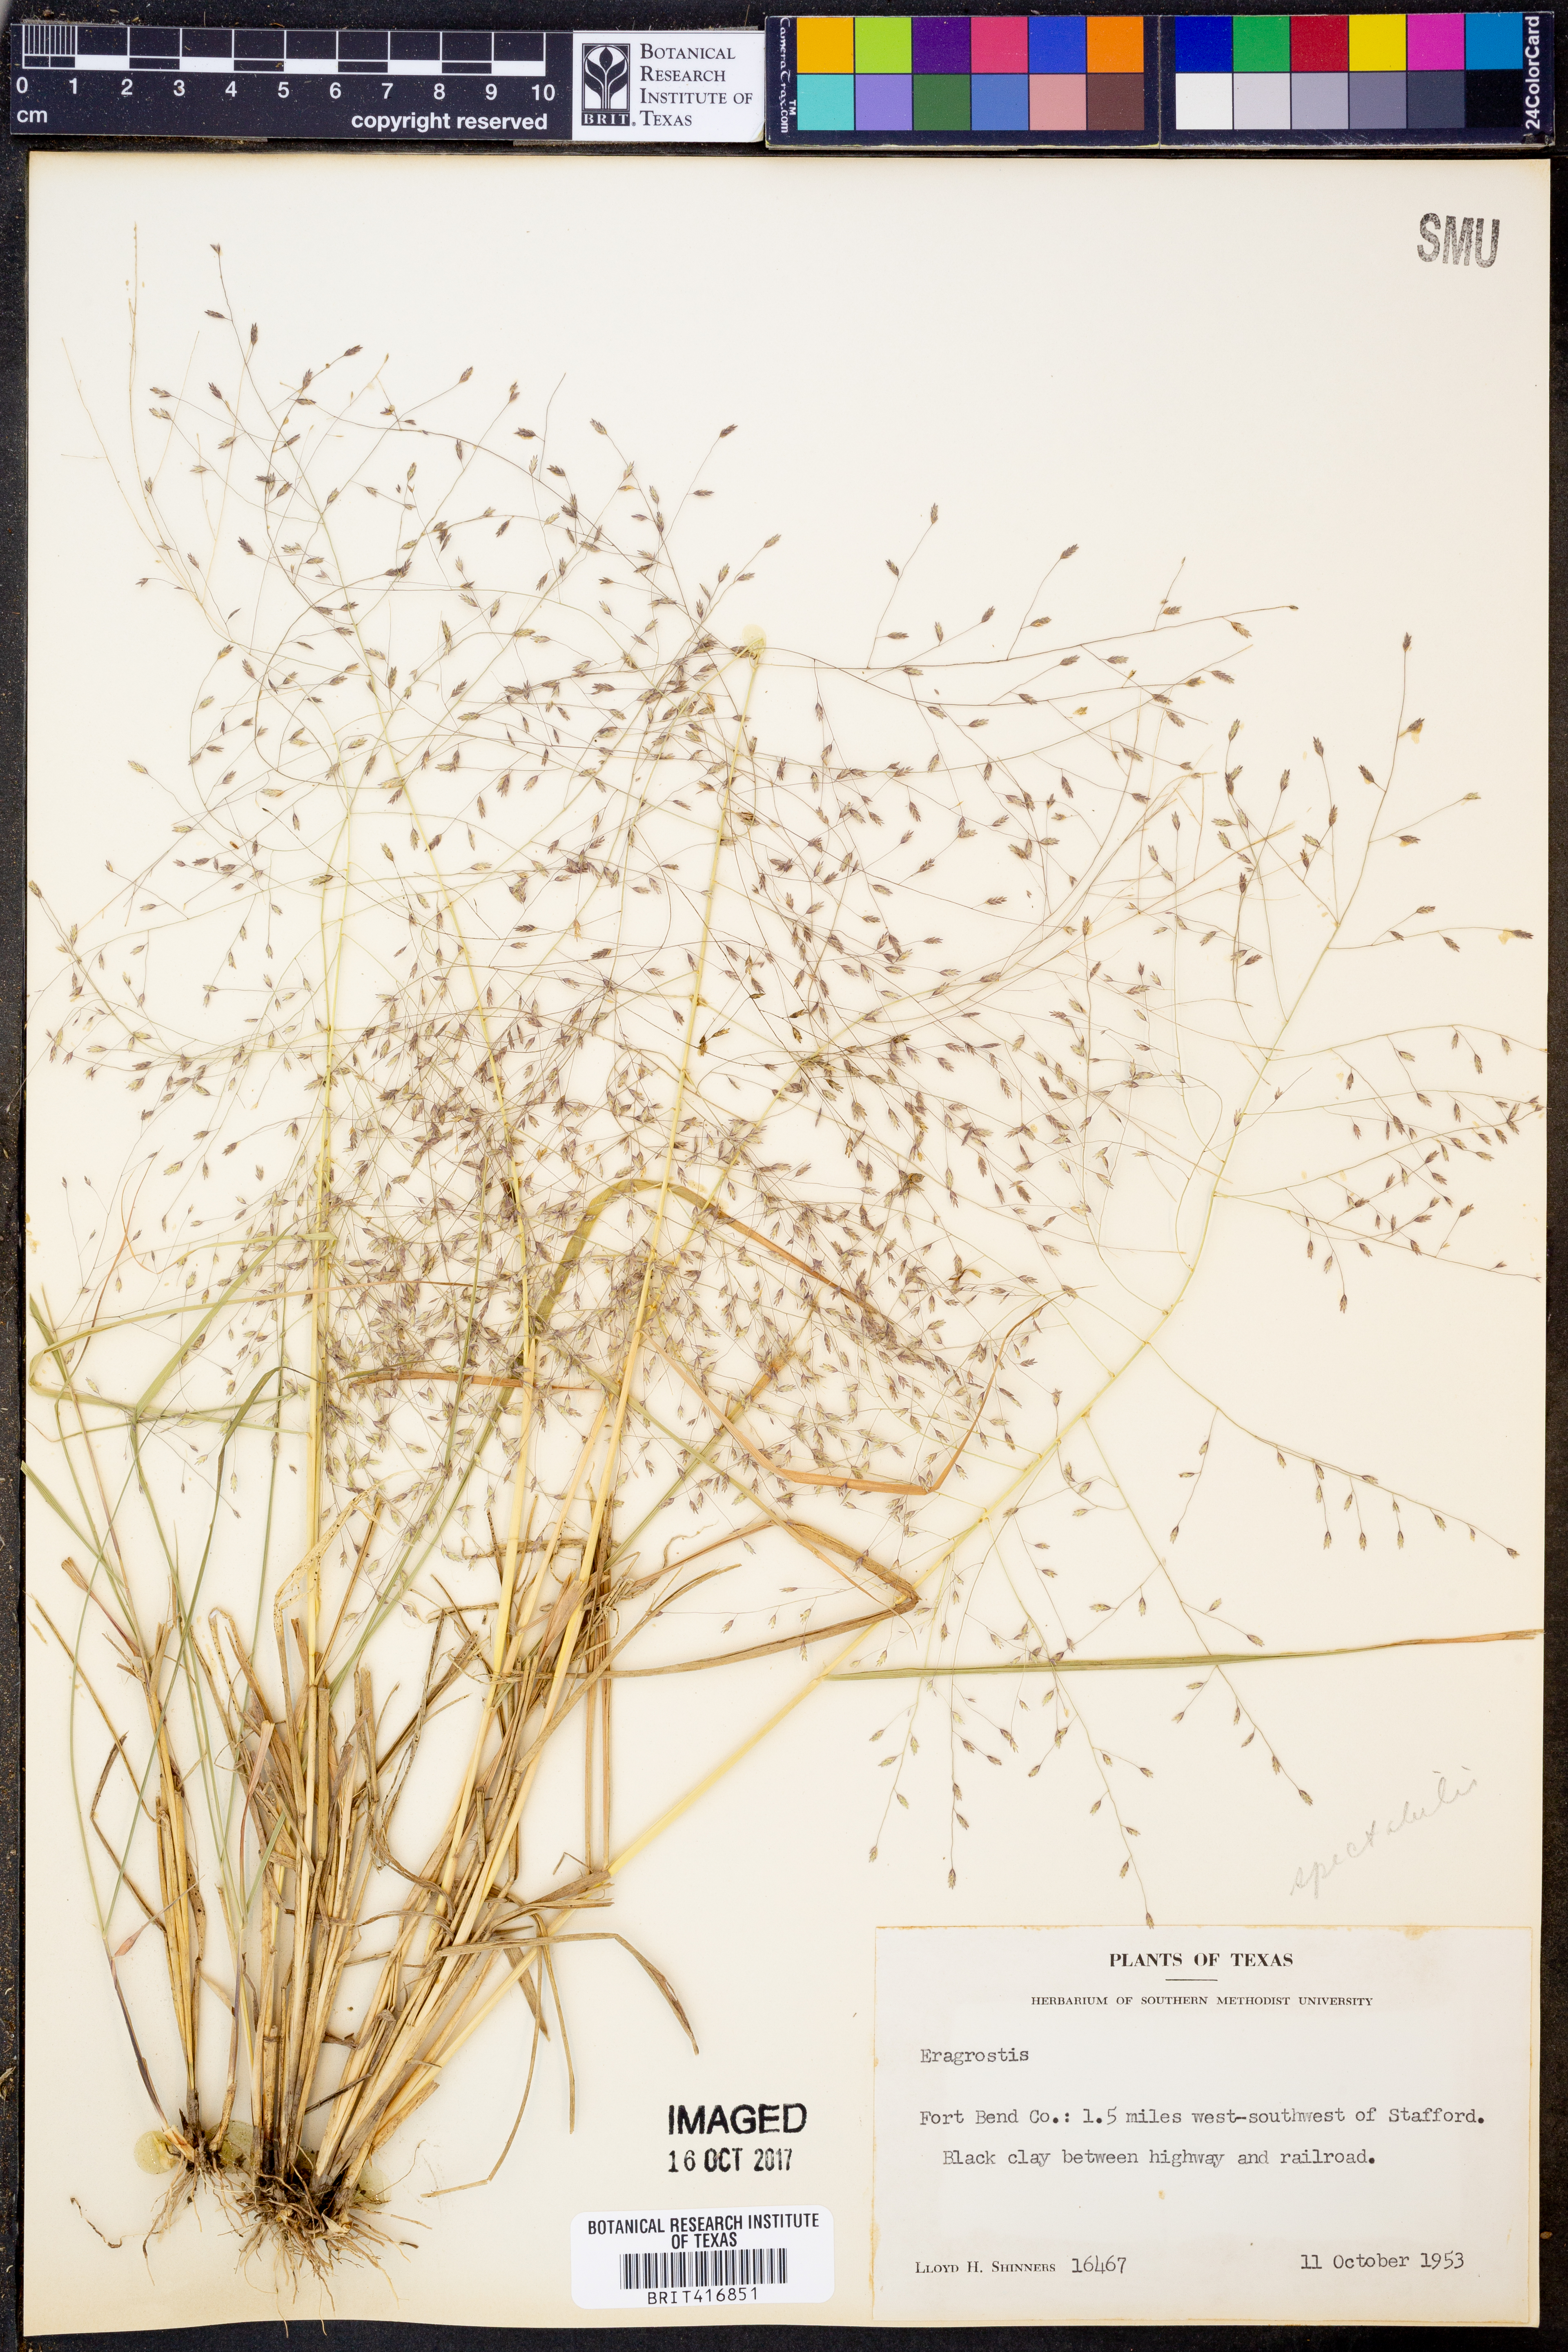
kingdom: Plantae
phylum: Tracheophyta
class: Liliopsida
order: Poales
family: Poaceae
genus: Eragrostis
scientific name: Eragrostis
